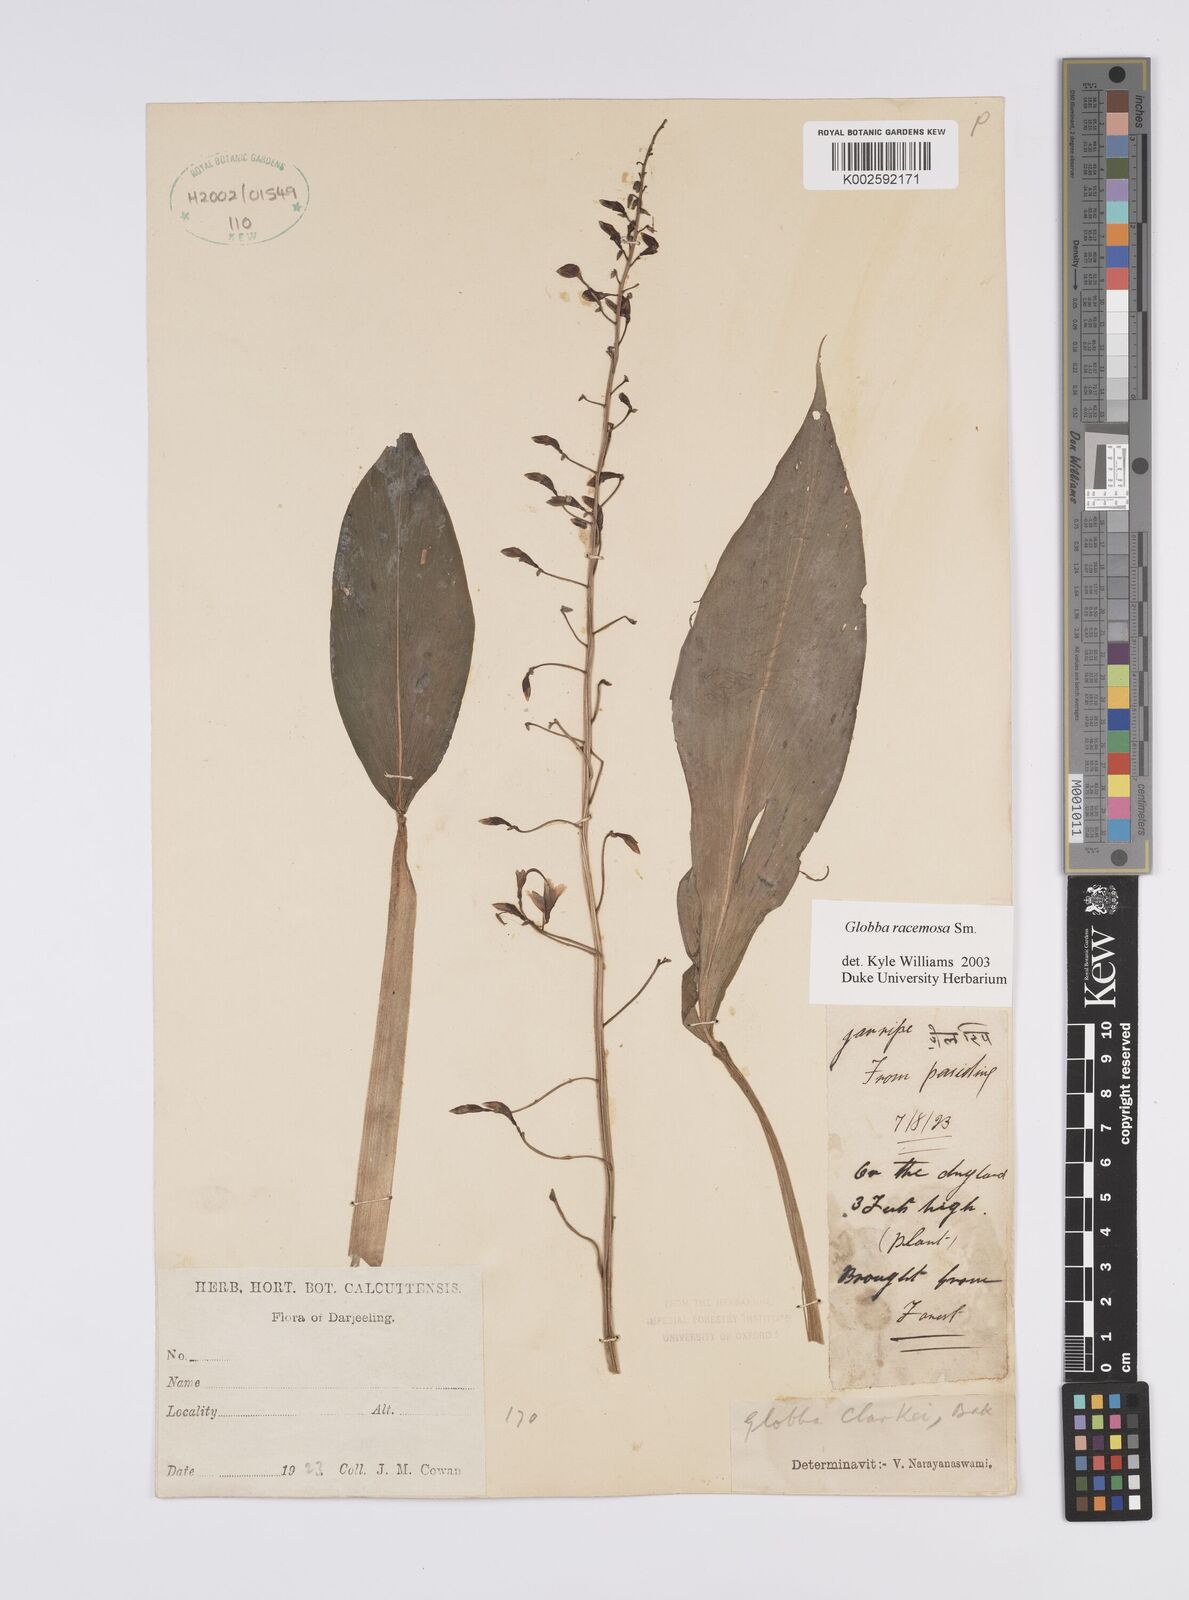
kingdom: Plantae
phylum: Tracheophyta
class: Liliopsida
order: Zingiberales
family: Zingiberaceae
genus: Globba
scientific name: Globba racemosa
